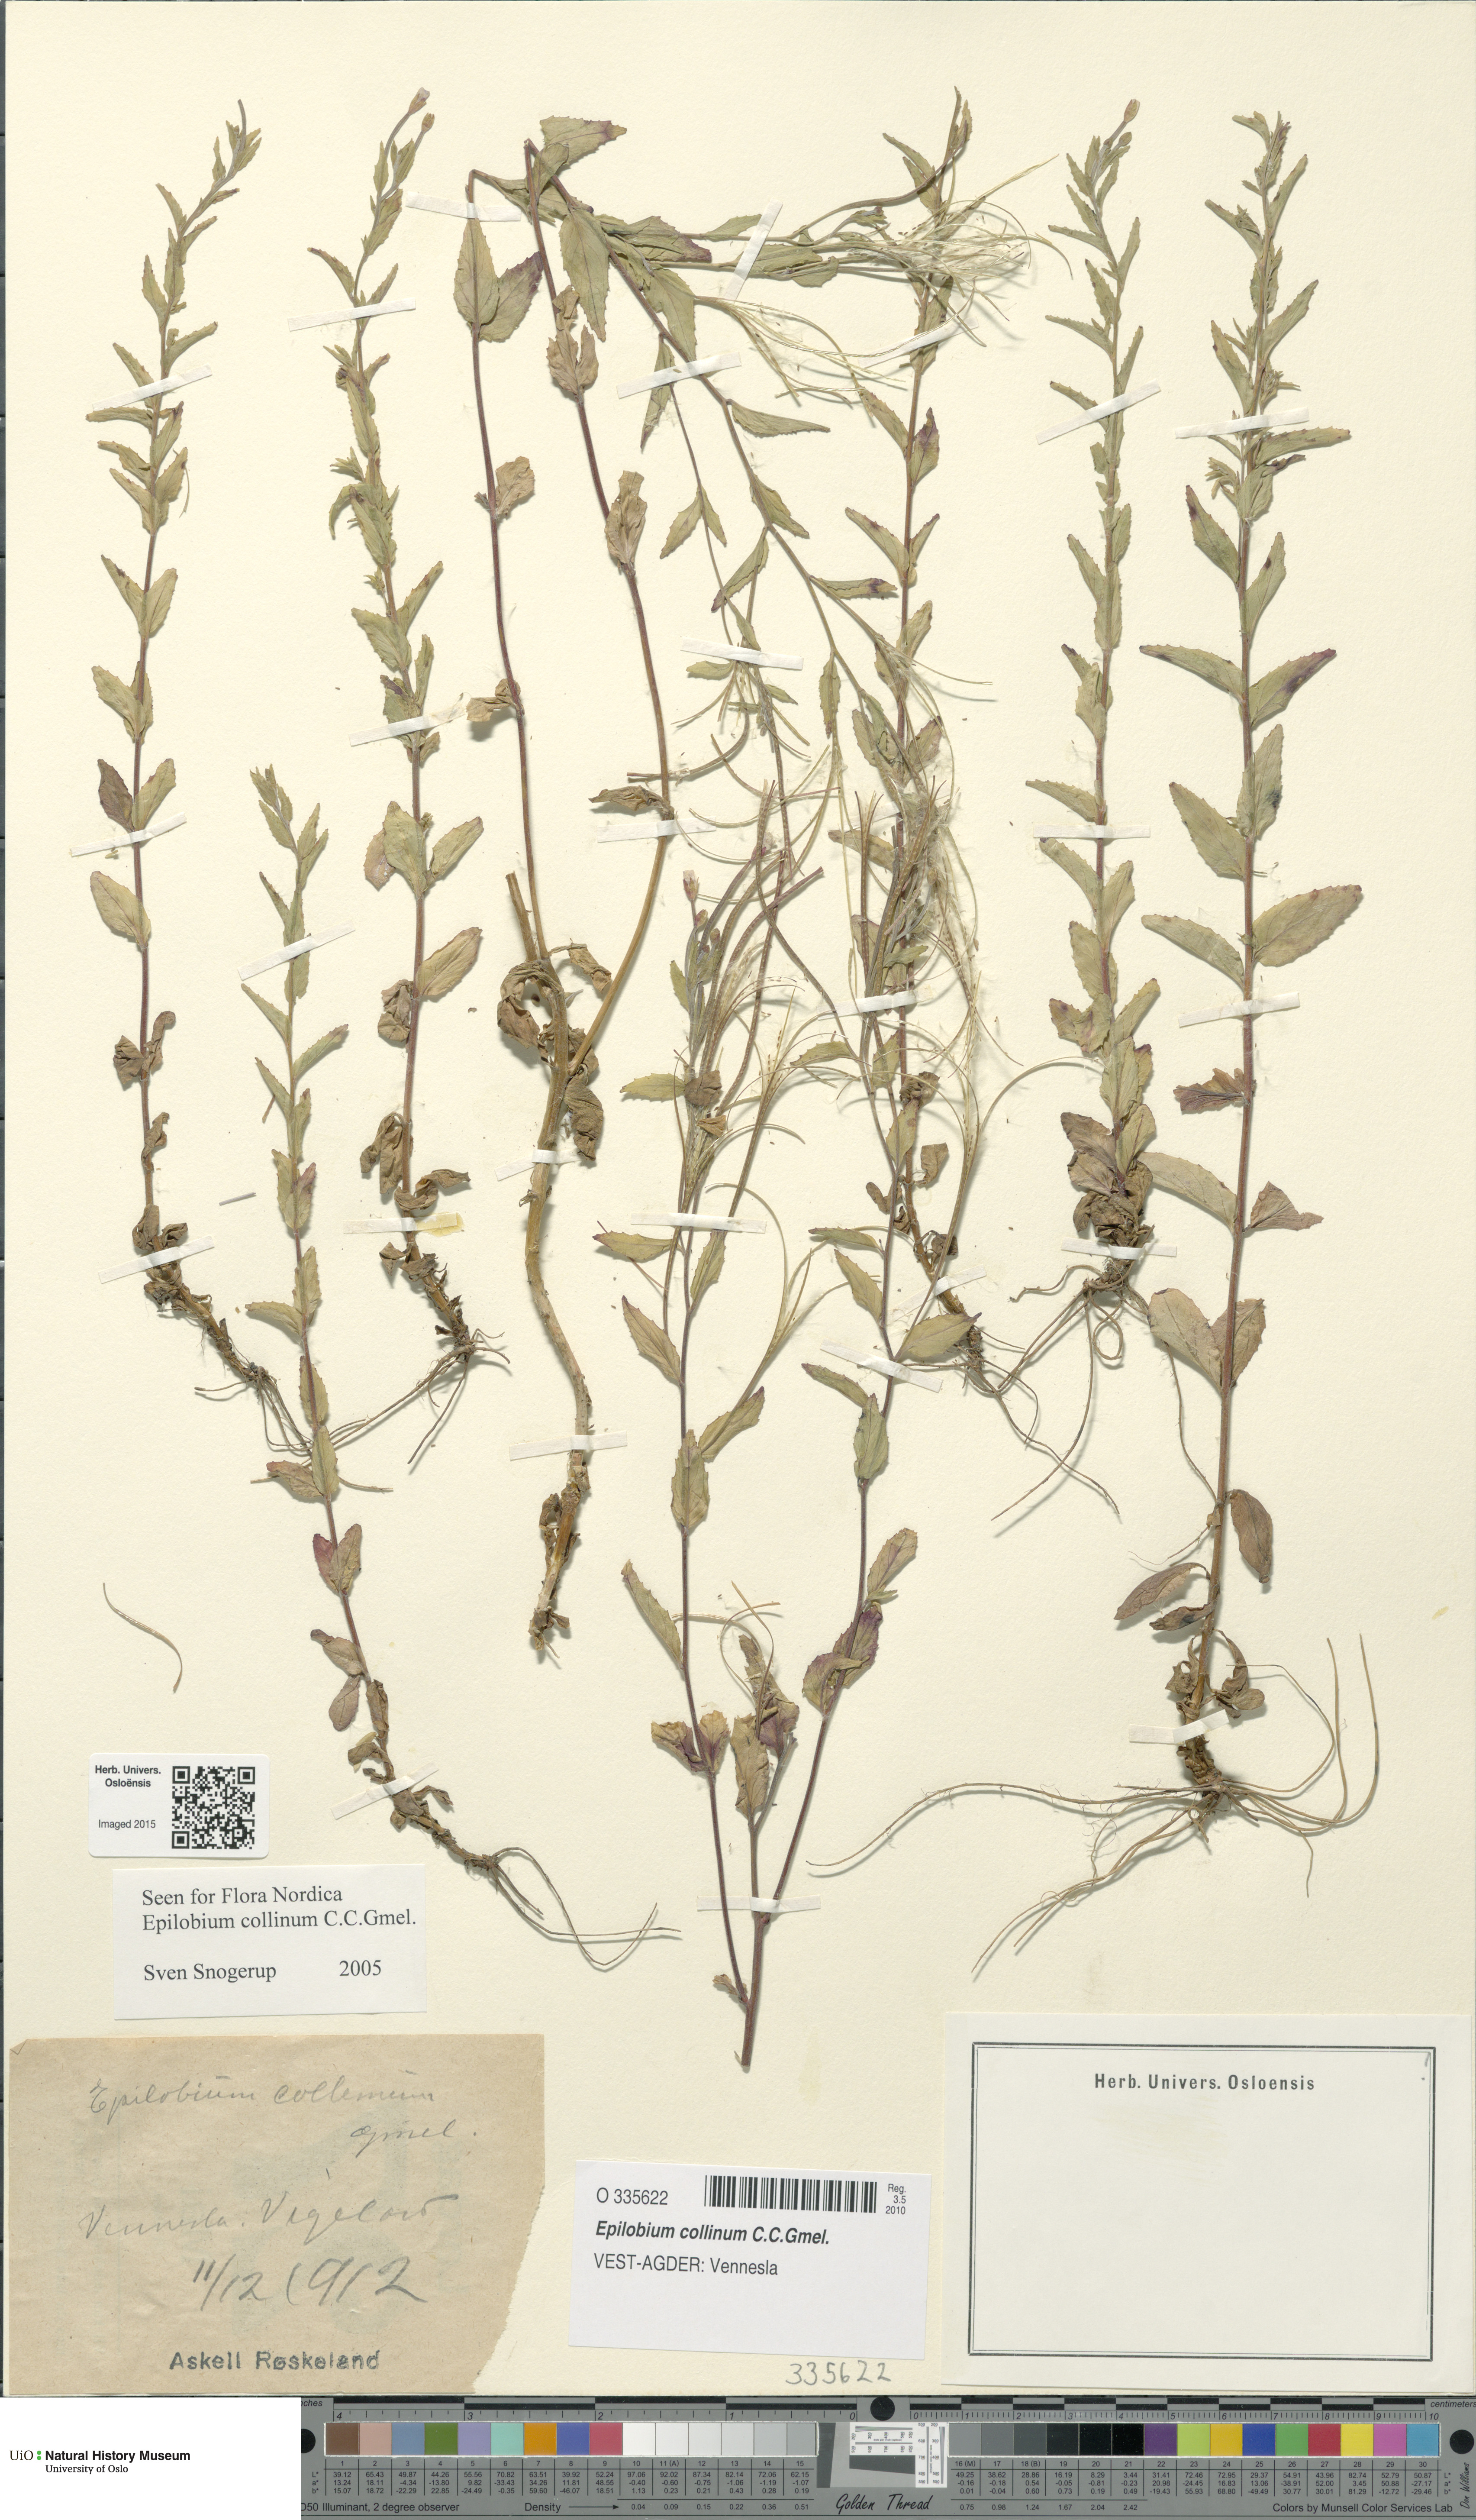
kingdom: Plantae
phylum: Tracheophyta
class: Magnoliopsida
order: Myrtales
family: Onagraceae
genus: Epilobium
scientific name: Epilobium collinum
